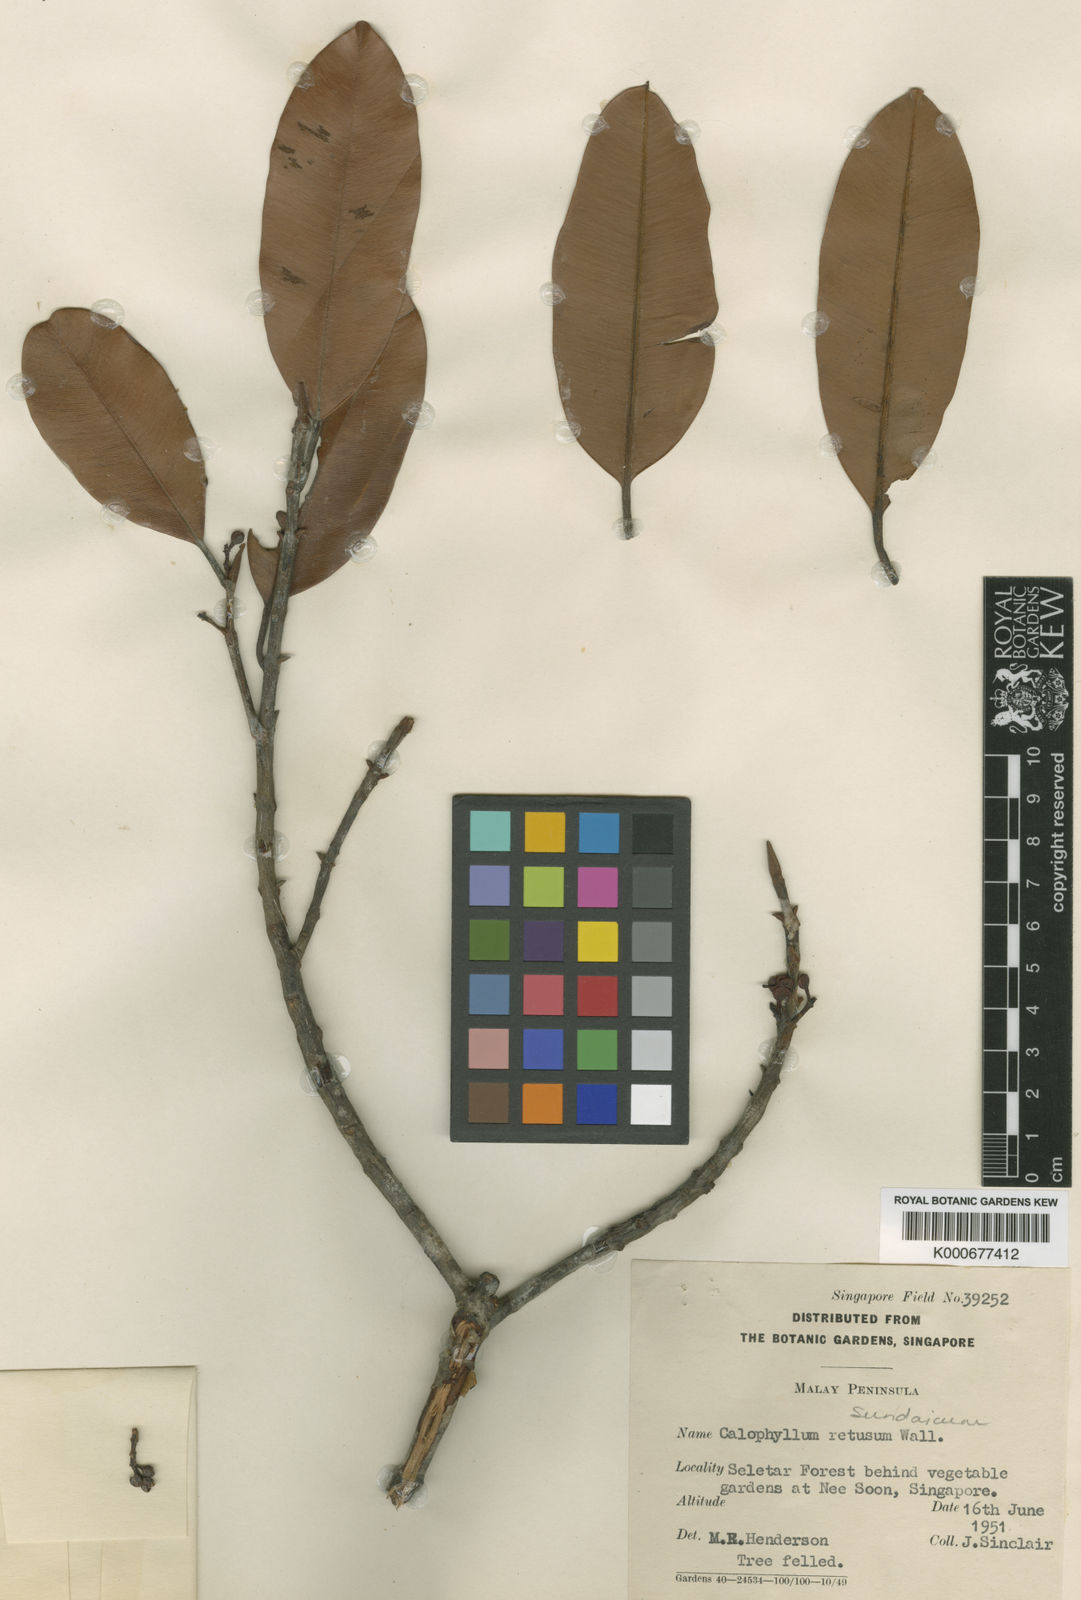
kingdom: Plantae
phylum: Tracheophyta
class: Magnoliopsida
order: Malpighiales
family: Calophyllaceae
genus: Calophyllum
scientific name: Calophyllum sundaicum
